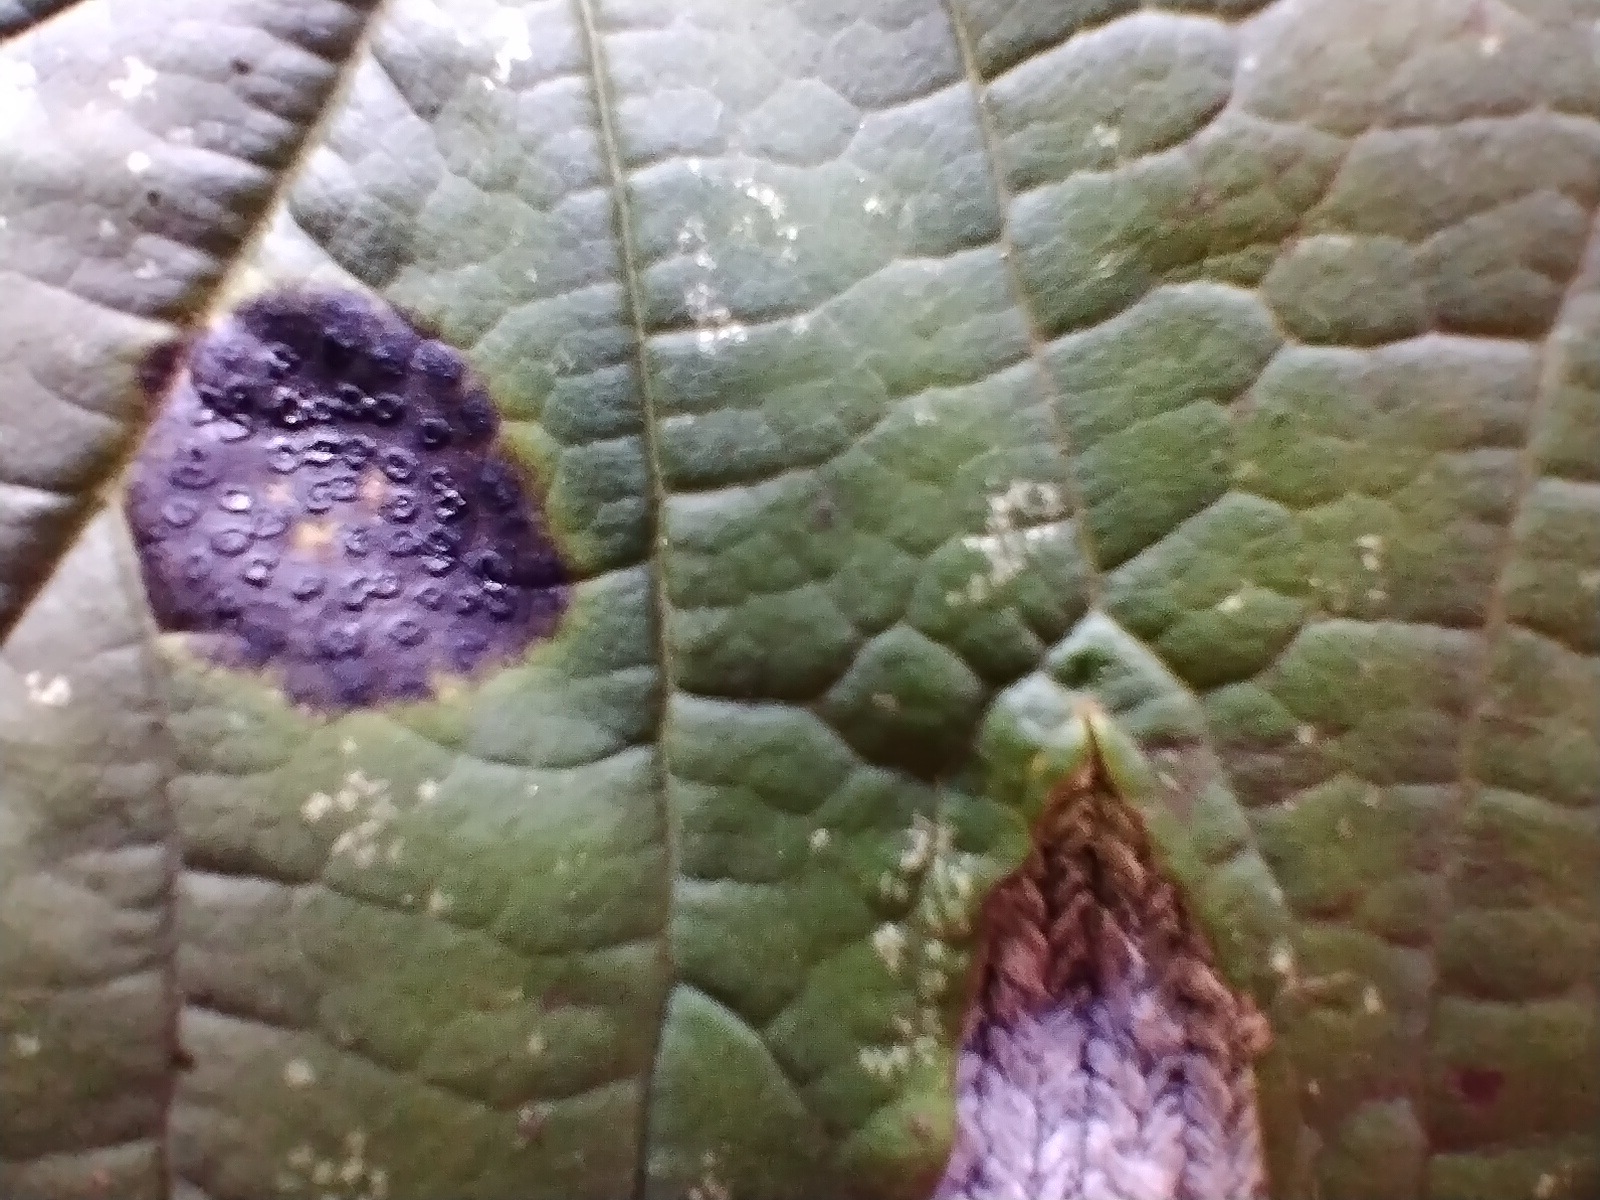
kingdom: Fungi
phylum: Ascomycota
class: Leotiomycetes
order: Rhytismatales
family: Rhytismataceae
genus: Rhytisma
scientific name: Rhytisma acerinum
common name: ahorn-rynkeplet
